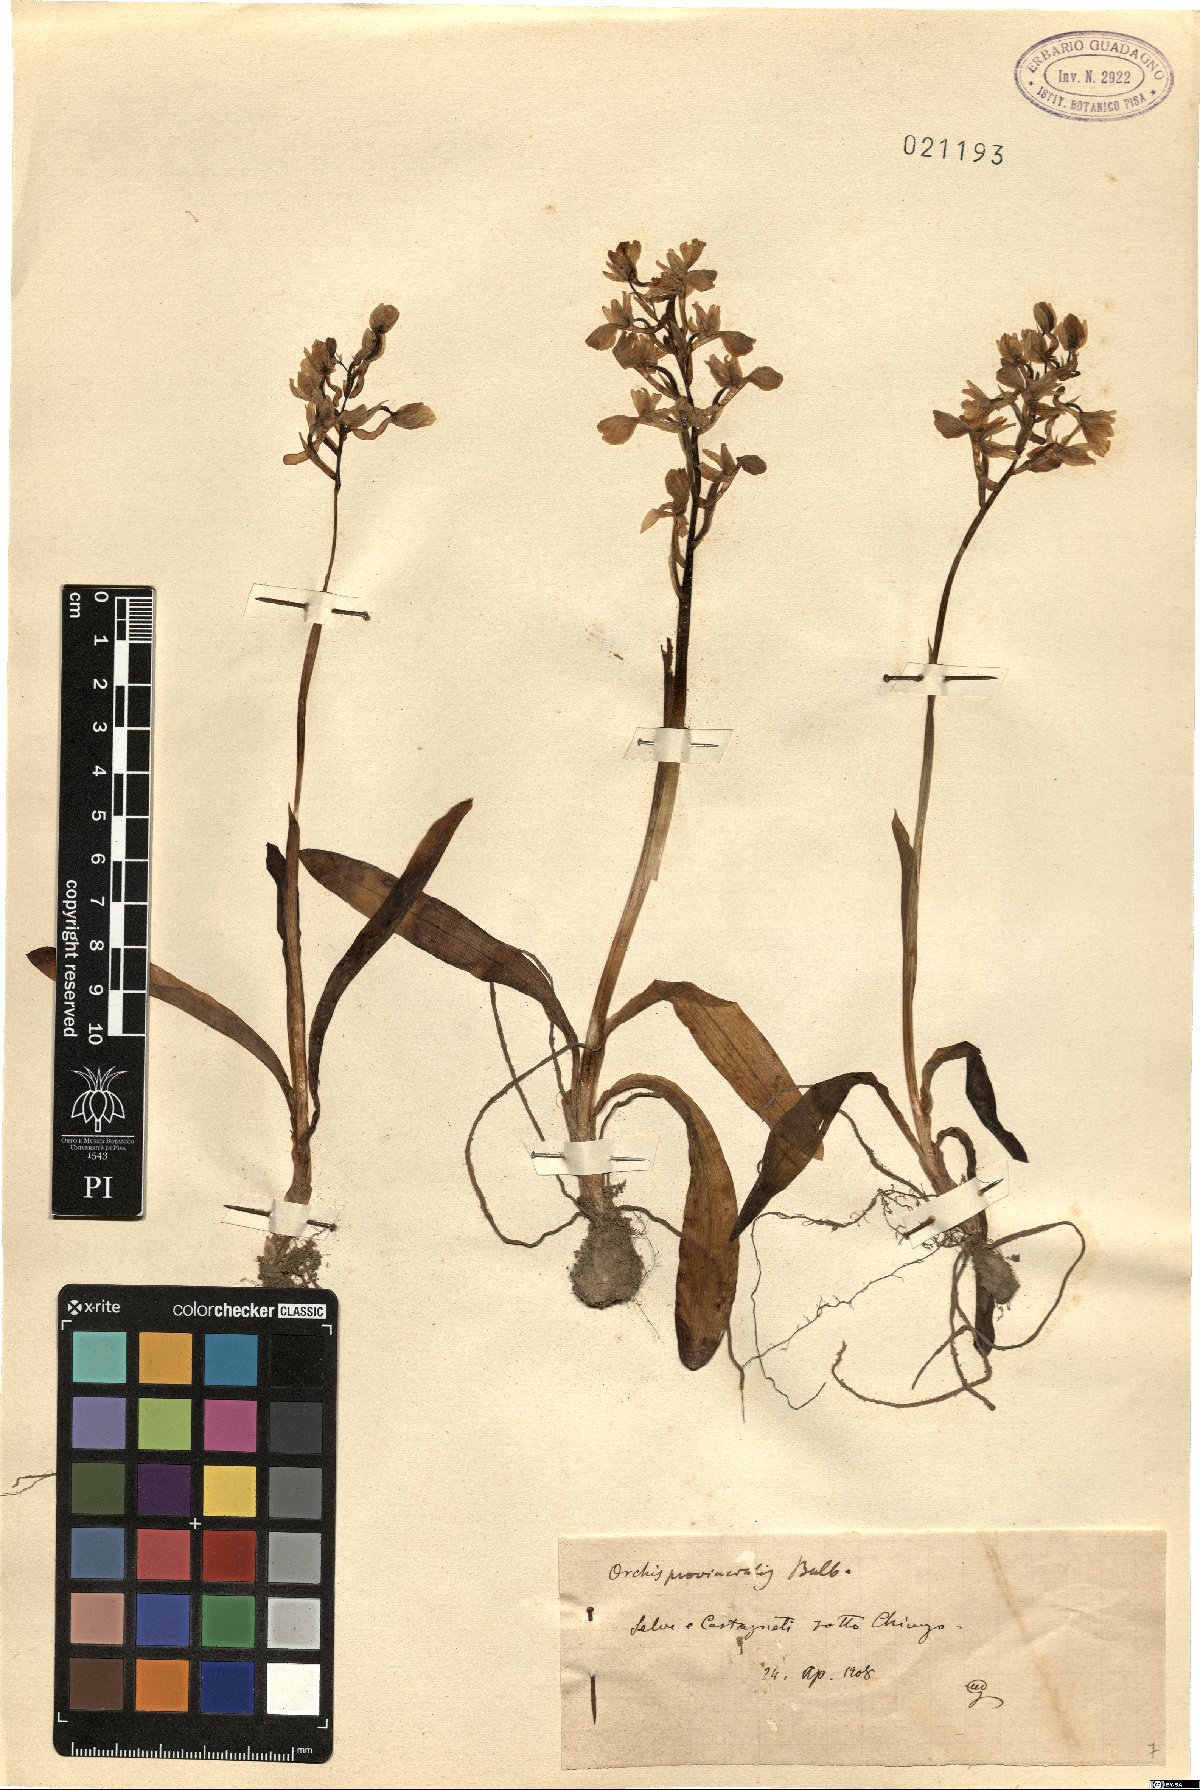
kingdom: Plantae
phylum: Tracheophyta
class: Liliopsida
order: Asparagales
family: Orchidaceae
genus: Orchis
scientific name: Orchis provincialis
